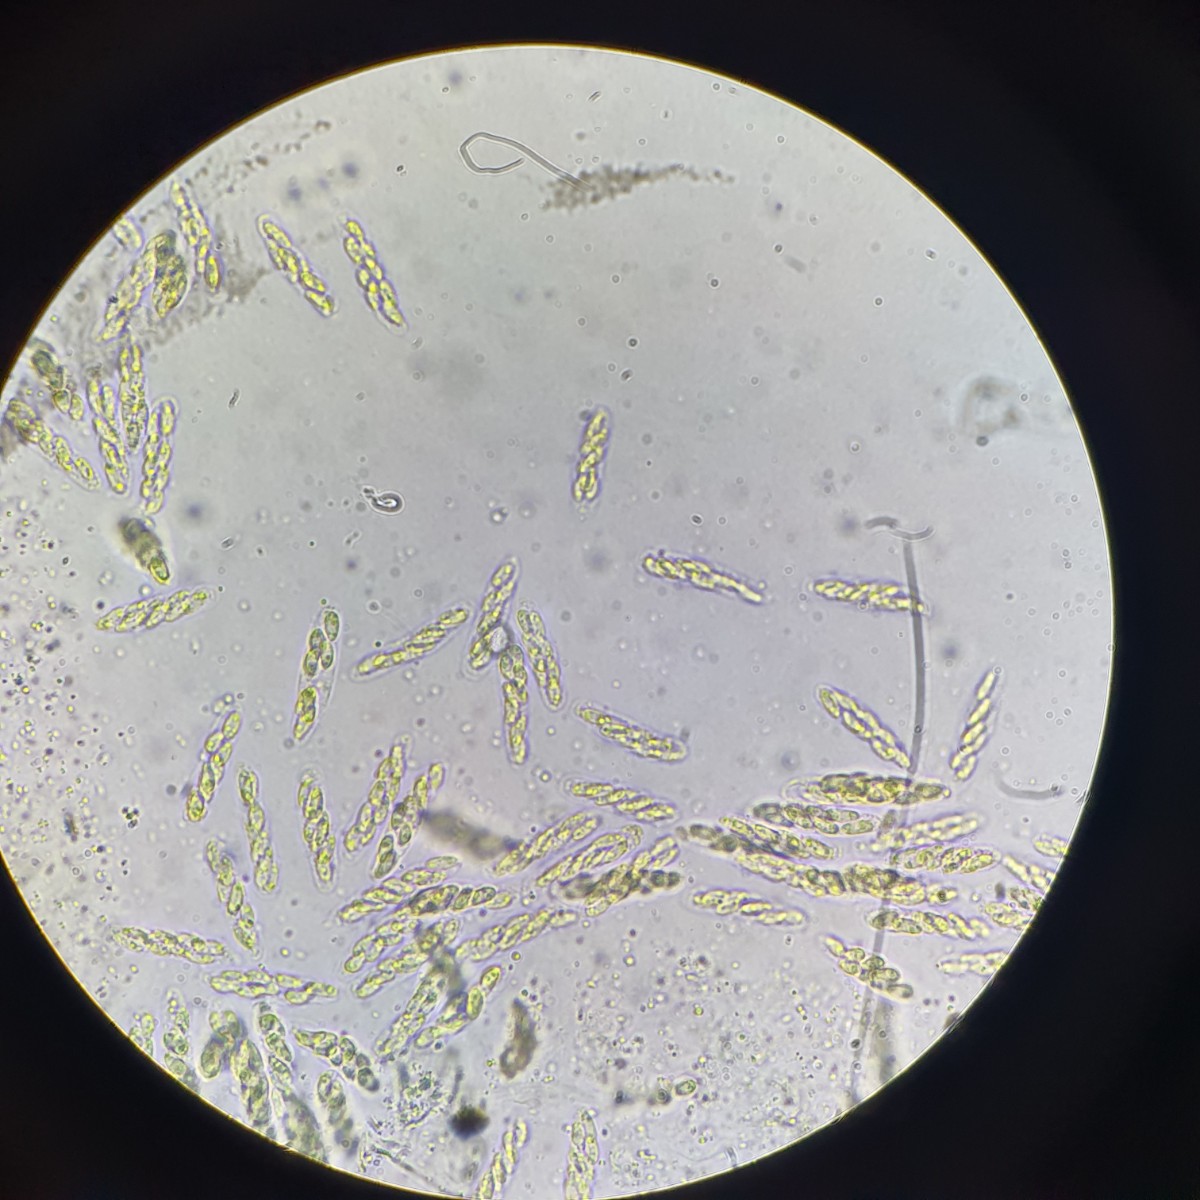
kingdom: Fungi
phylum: Ascomycota
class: Sordariomycetes
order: Diaporthales
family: Gnomoniaceae
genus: Gnomoniella
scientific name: Gnomoniella rubicola
